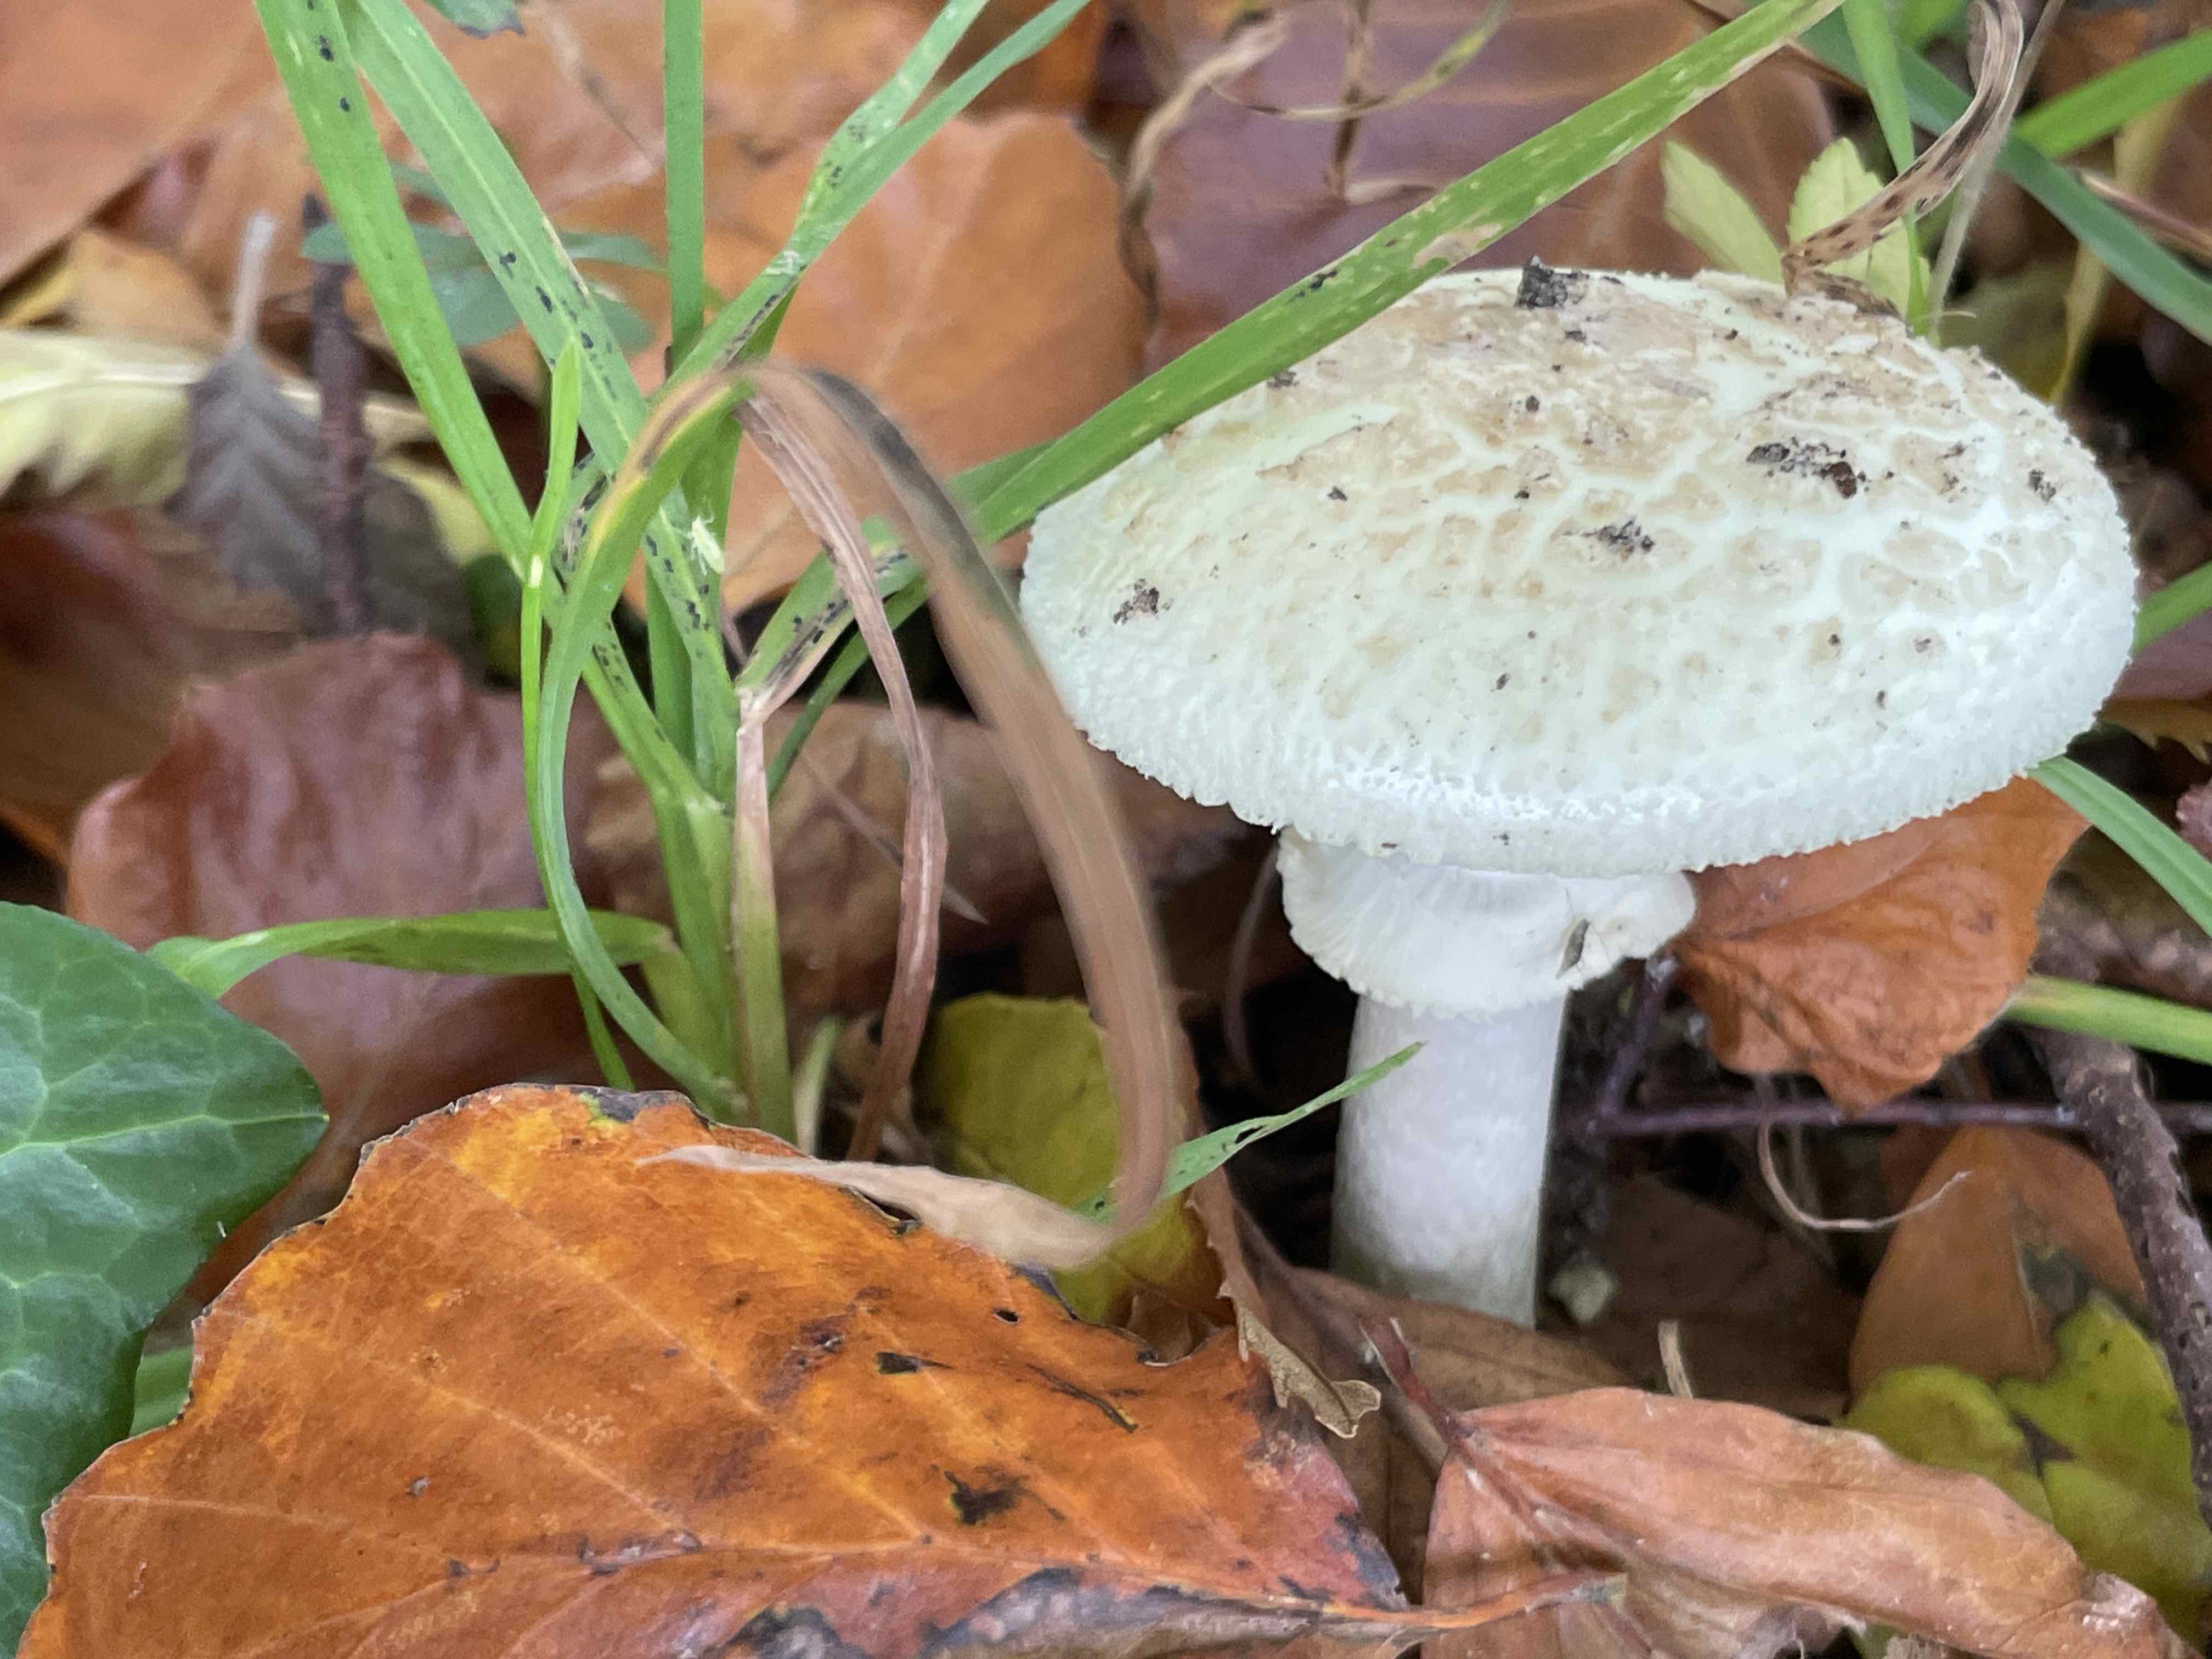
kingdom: Fungi
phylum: Basidiomycota
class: Agaricomycetes
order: Agaricales
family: Amanitaceae
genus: Amanita
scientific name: Amanita citrina
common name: False death-cap
